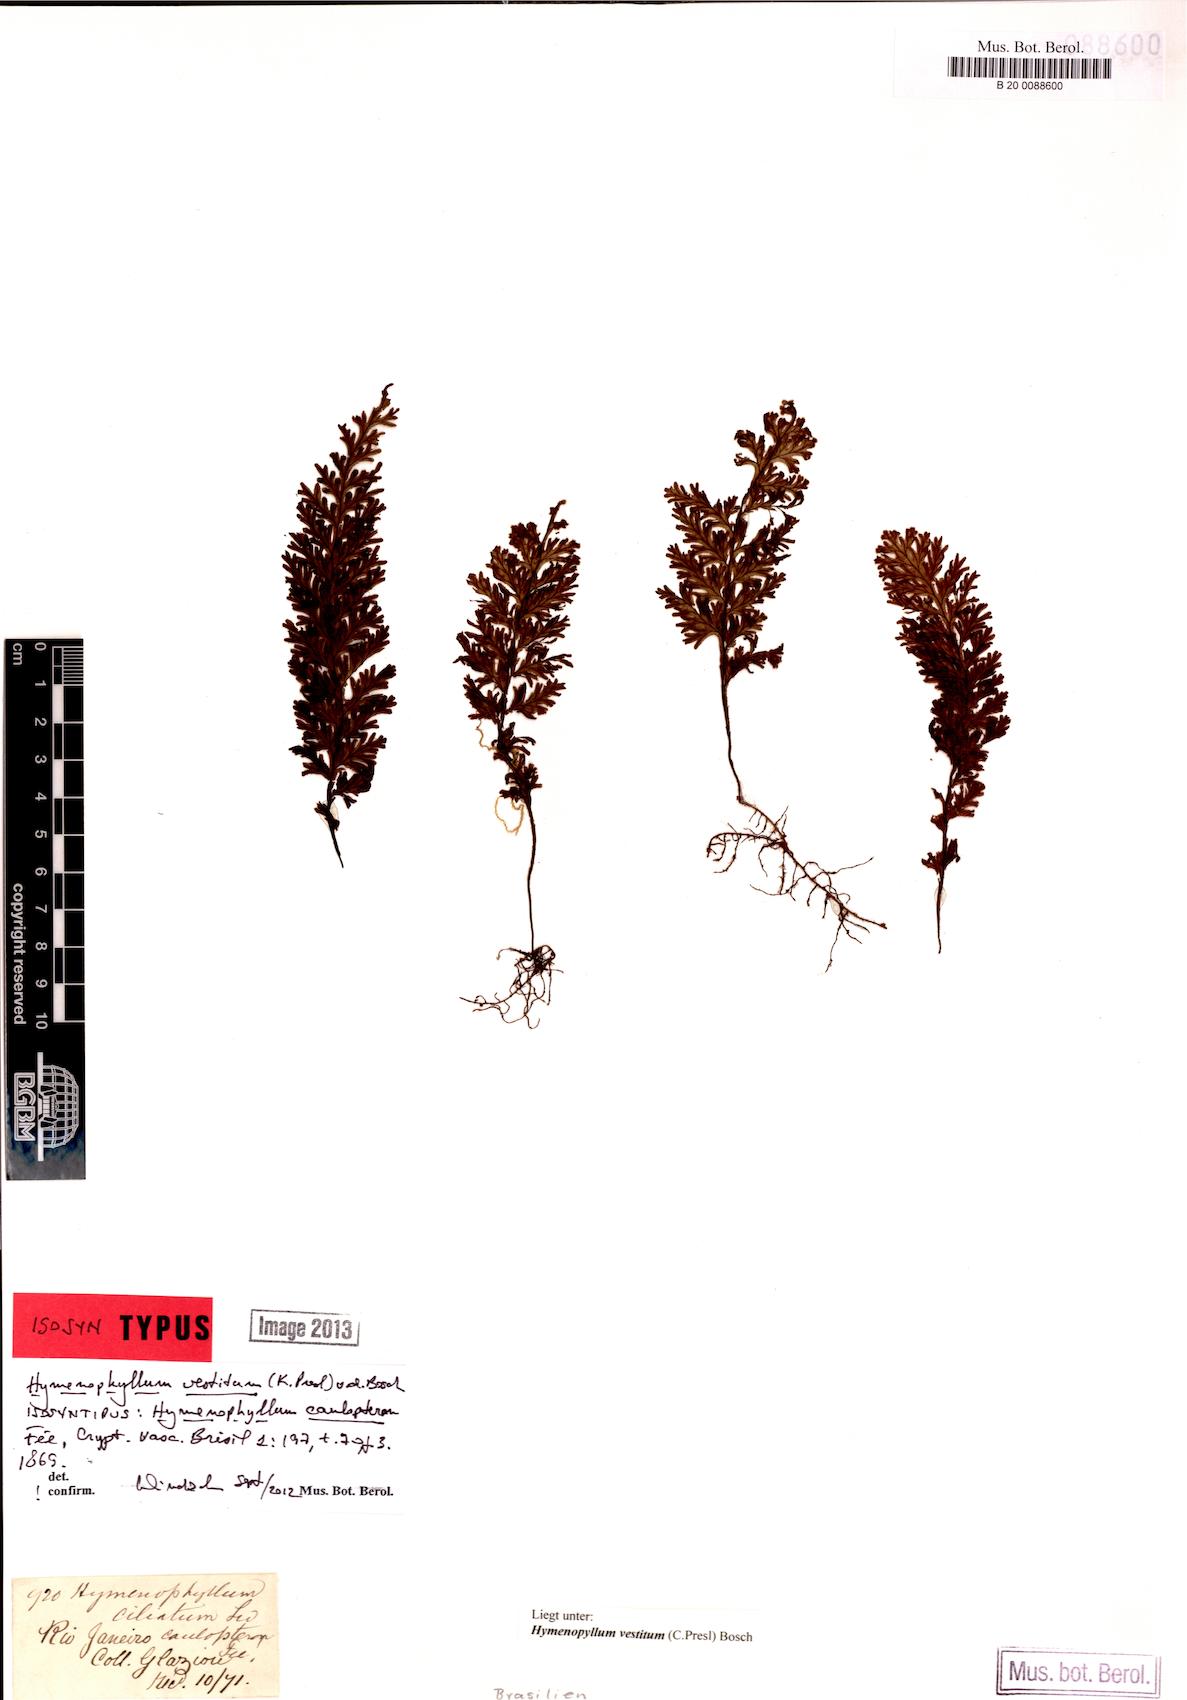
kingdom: Plantae
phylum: Tracheophyta
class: Polypodiopsida
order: Hymenophyllales
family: Hymenophyllaceae
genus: Hymenophyllum
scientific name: Hymenophyllum vestitum
